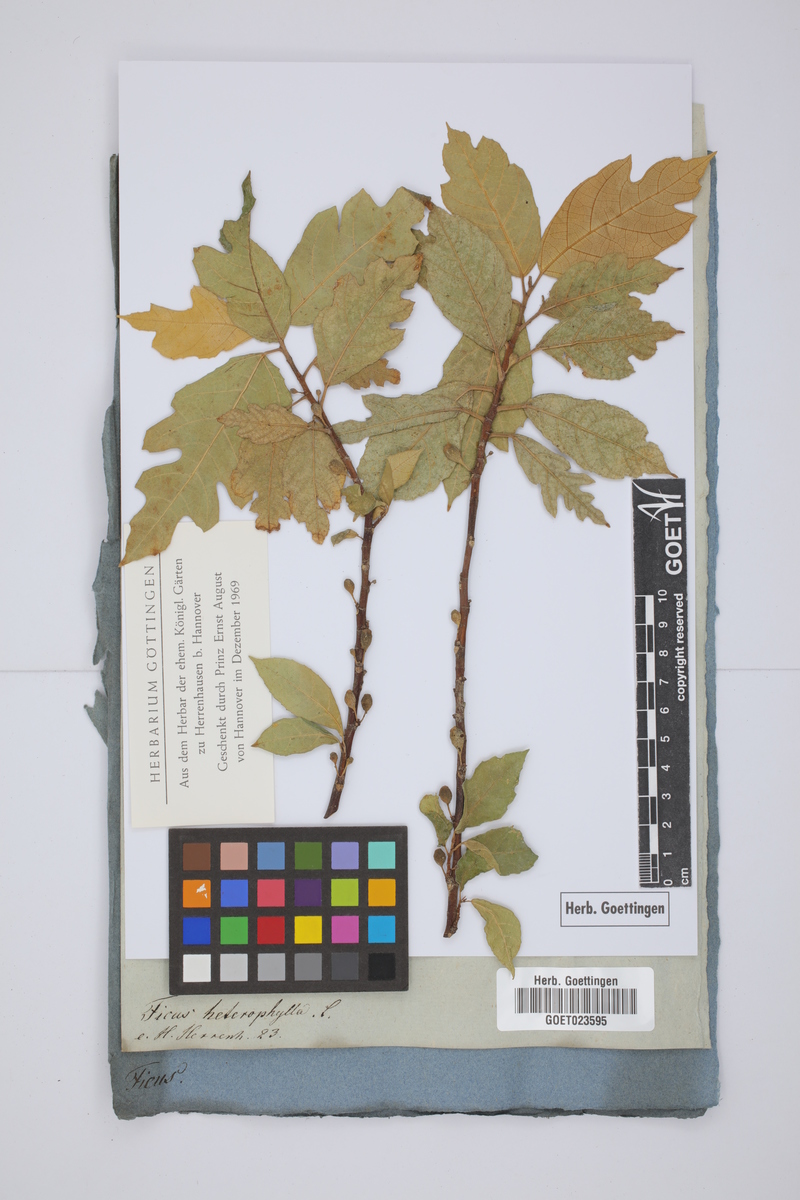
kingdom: Plantae
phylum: Tracheophyta
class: Magnoliopsida
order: Rosales
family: Moraceae
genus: Ficus
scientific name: Ficus heterophylla
